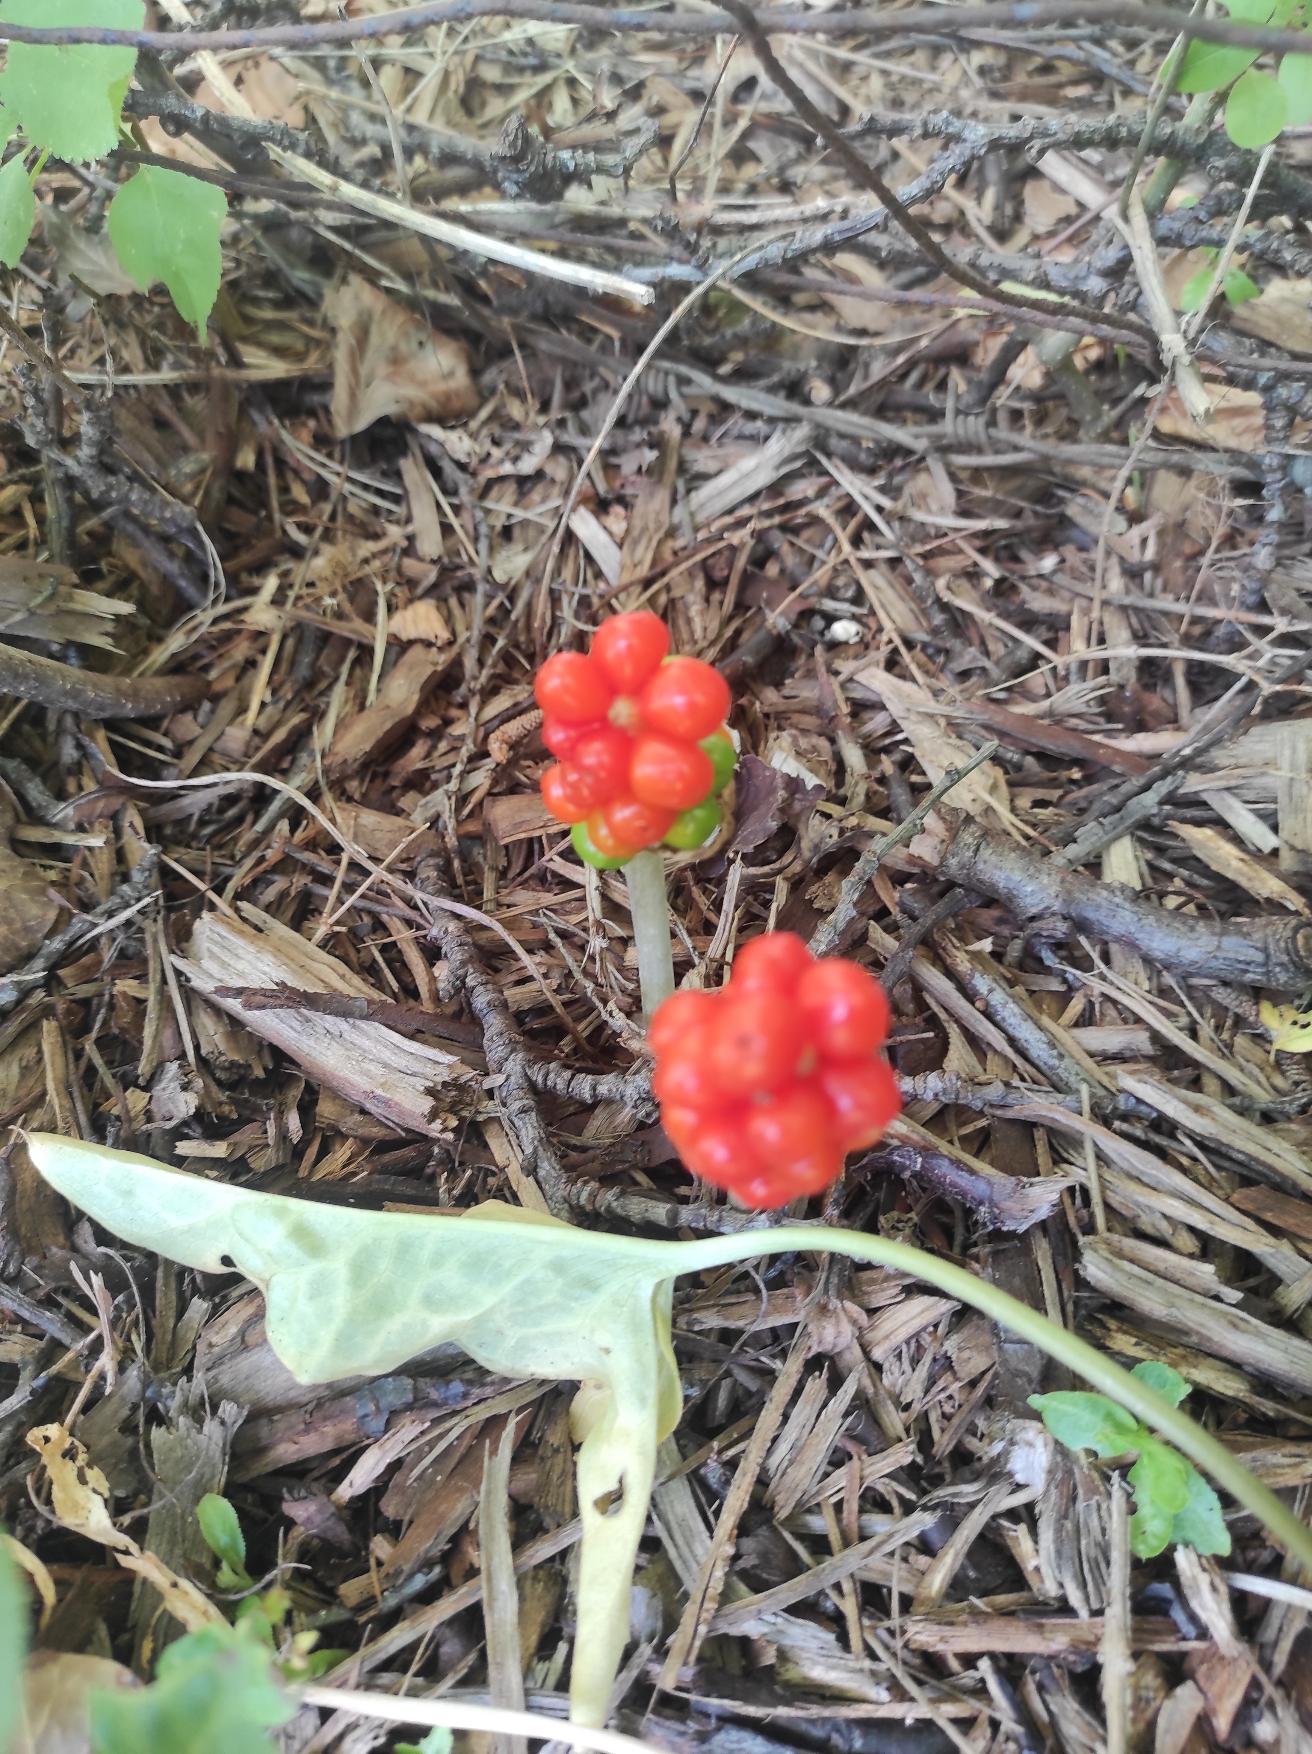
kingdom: Plantae
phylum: Tracheophyta
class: Liliopsida
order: Alismatales
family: Araceae
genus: Arum
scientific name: Arum
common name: Arumslægten
